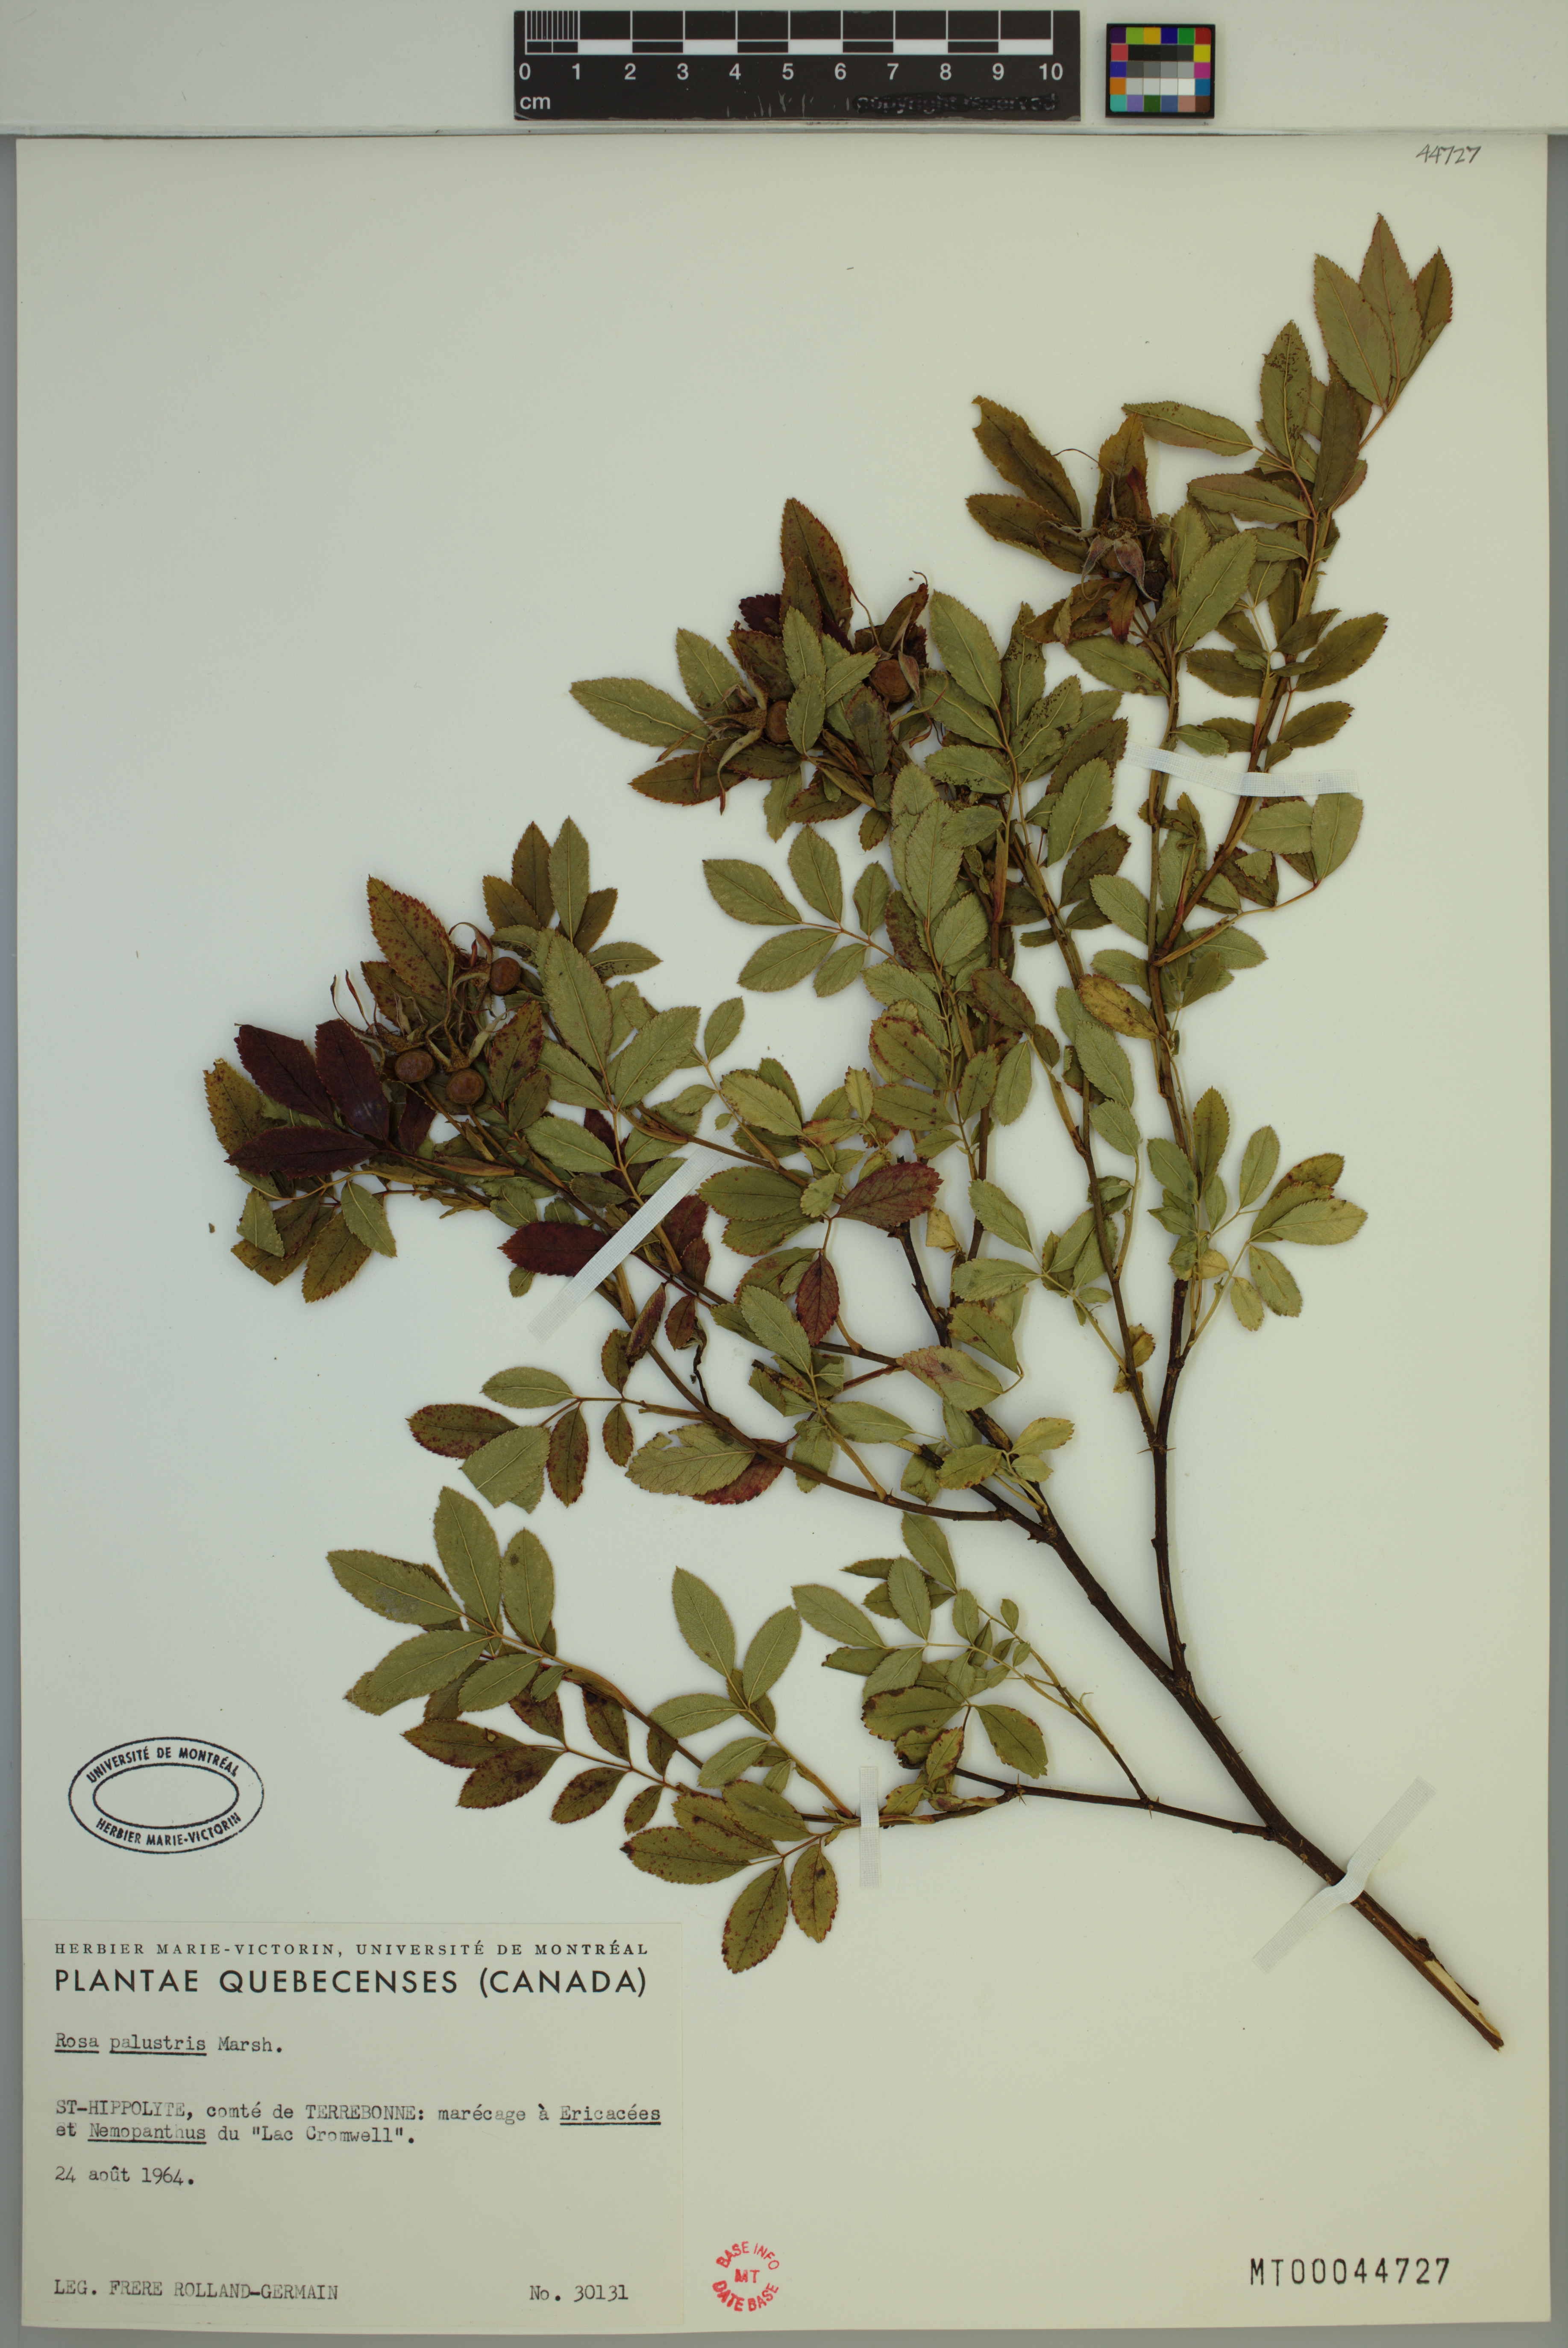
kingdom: Plantae
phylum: Tracheophyta
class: Magnoliopsida
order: Rosales
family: Rosaceae
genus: Rosa
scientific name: Rosa palustris
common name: Swamp rose
